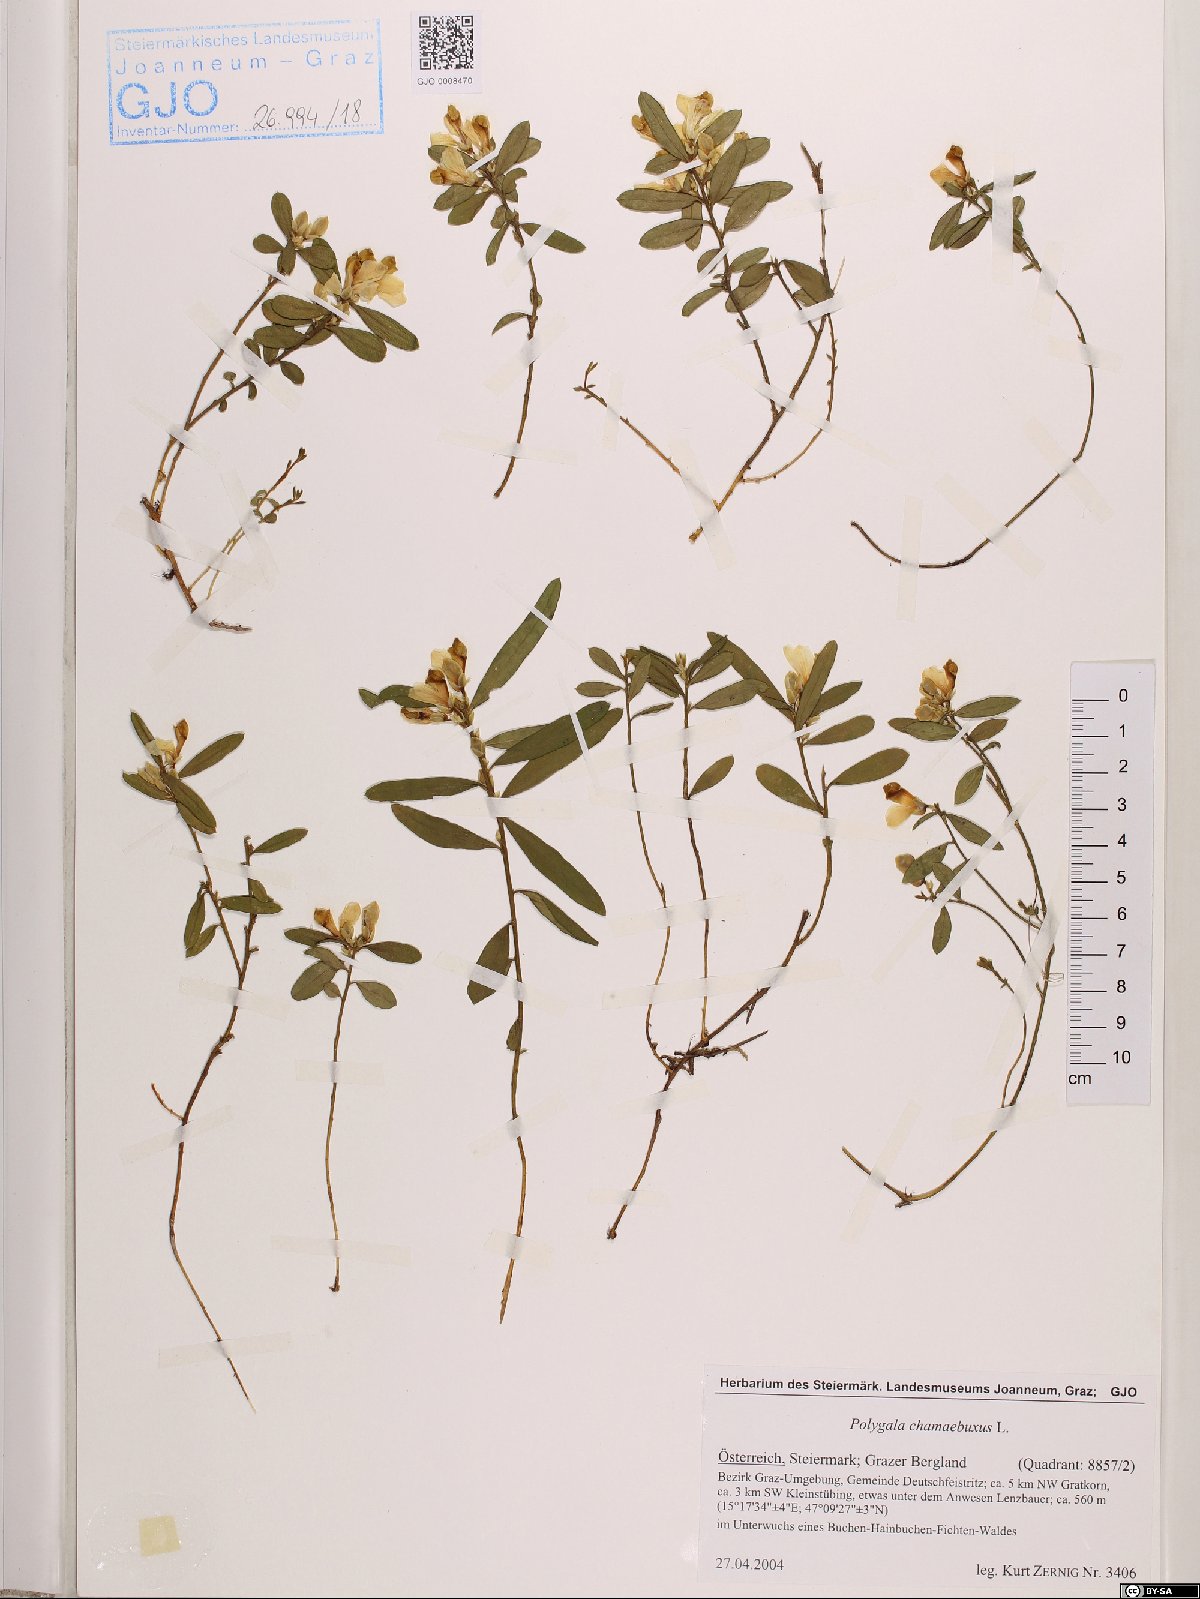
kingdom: Plantae
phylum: Tracheophyta
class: Magnoliopsida
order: Fabales
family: Polygalaceae
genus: Polygaloides
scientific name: Polygaloides chamaebuxus
